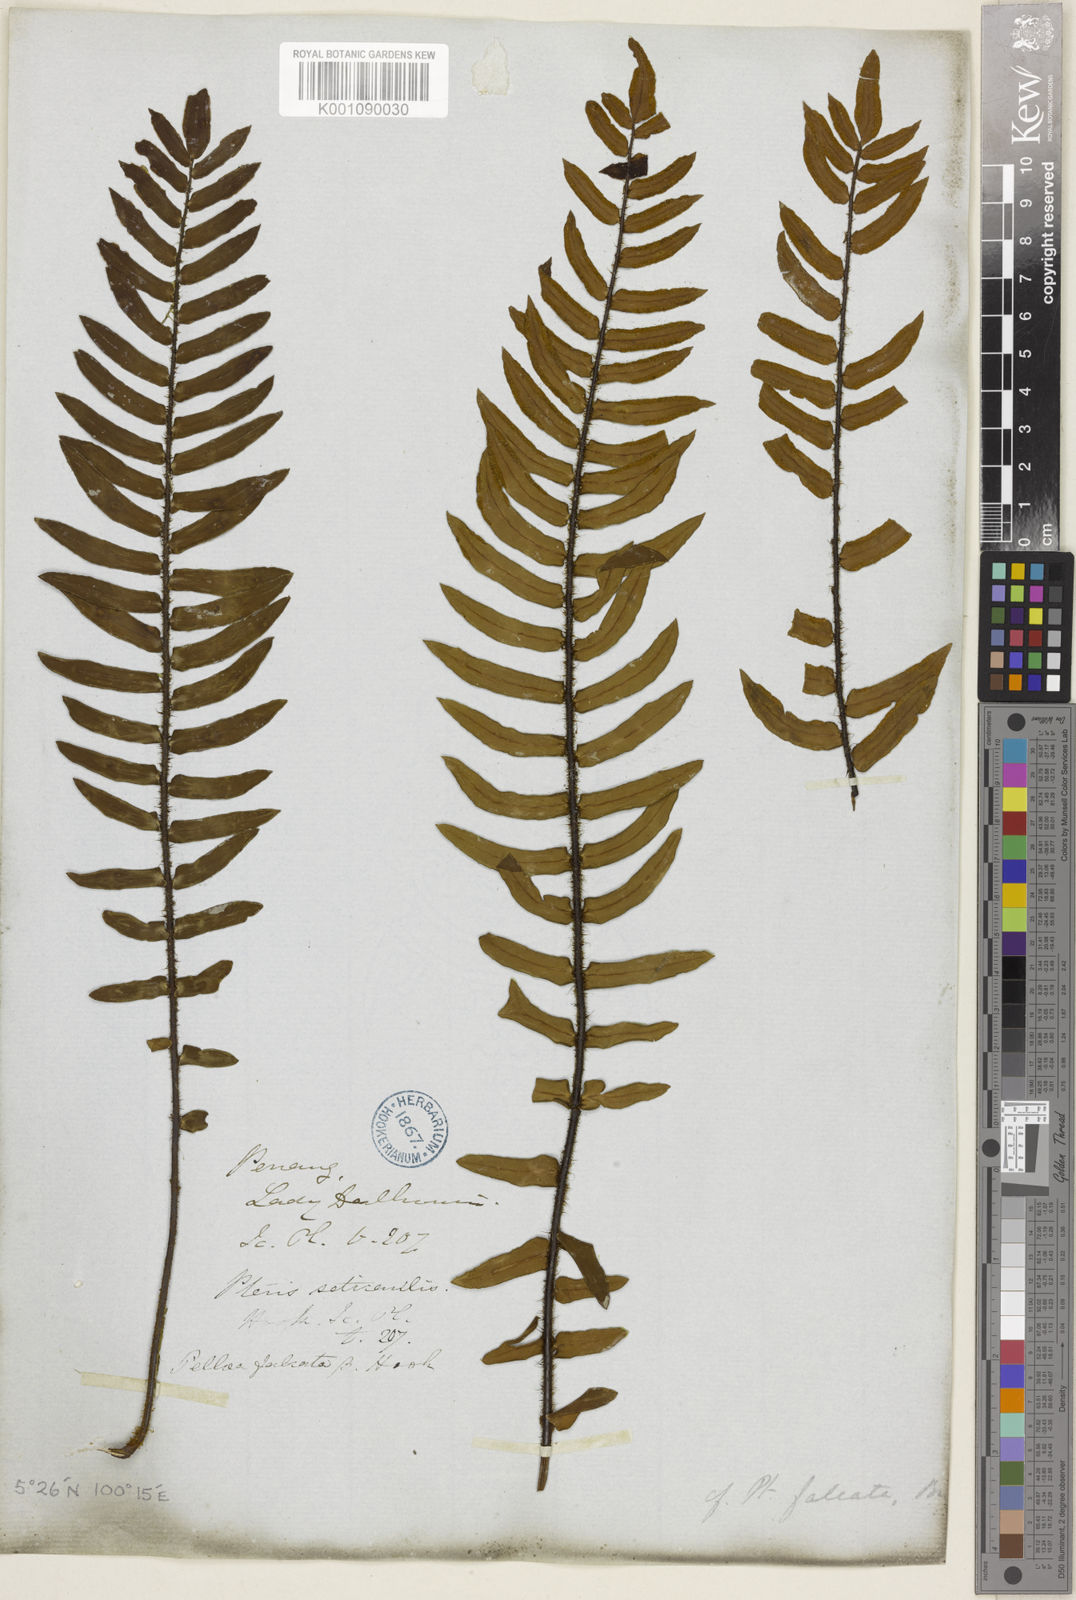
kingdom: Plantae
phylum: Tracheophyta
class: Polypodiopsida
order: Polypodiales
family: Pteridaceae
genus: Pellaea
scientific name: Pellaea
